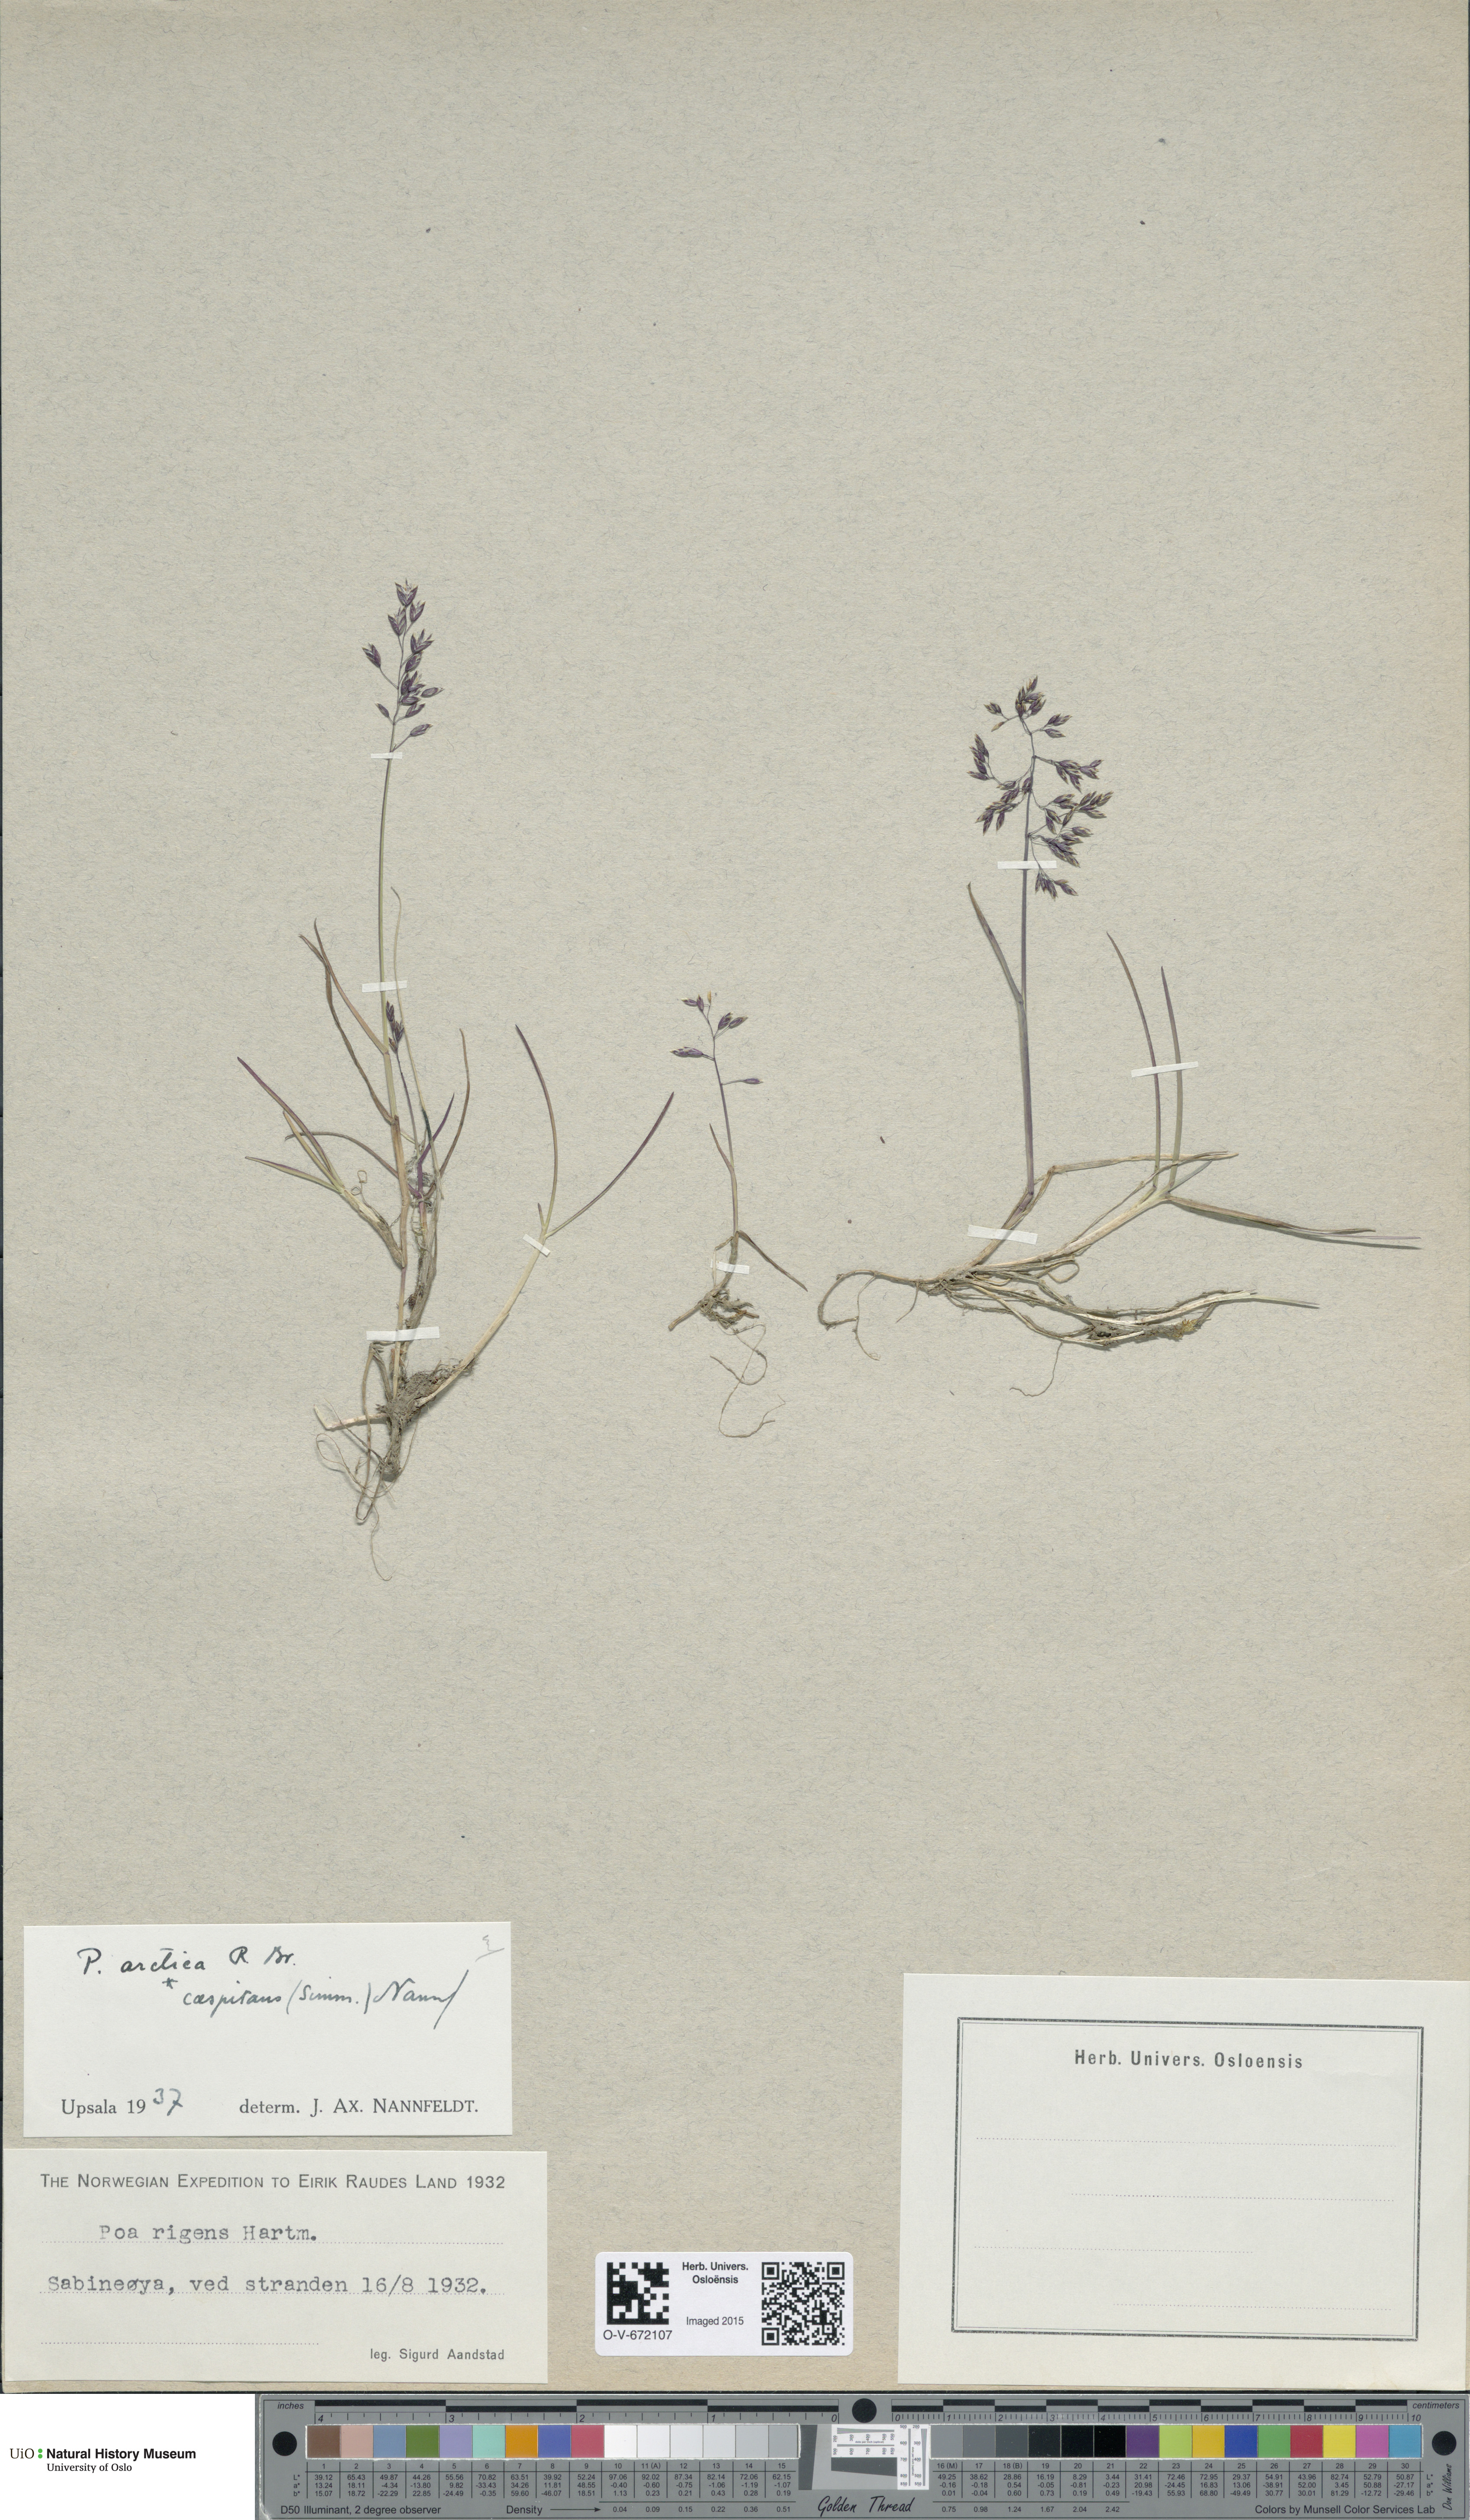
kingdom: Plantae
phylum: Tracheophyta
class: Liliopsida
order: Poales
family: Poaceae
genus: Poa
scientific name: Poa tolmatchewii
